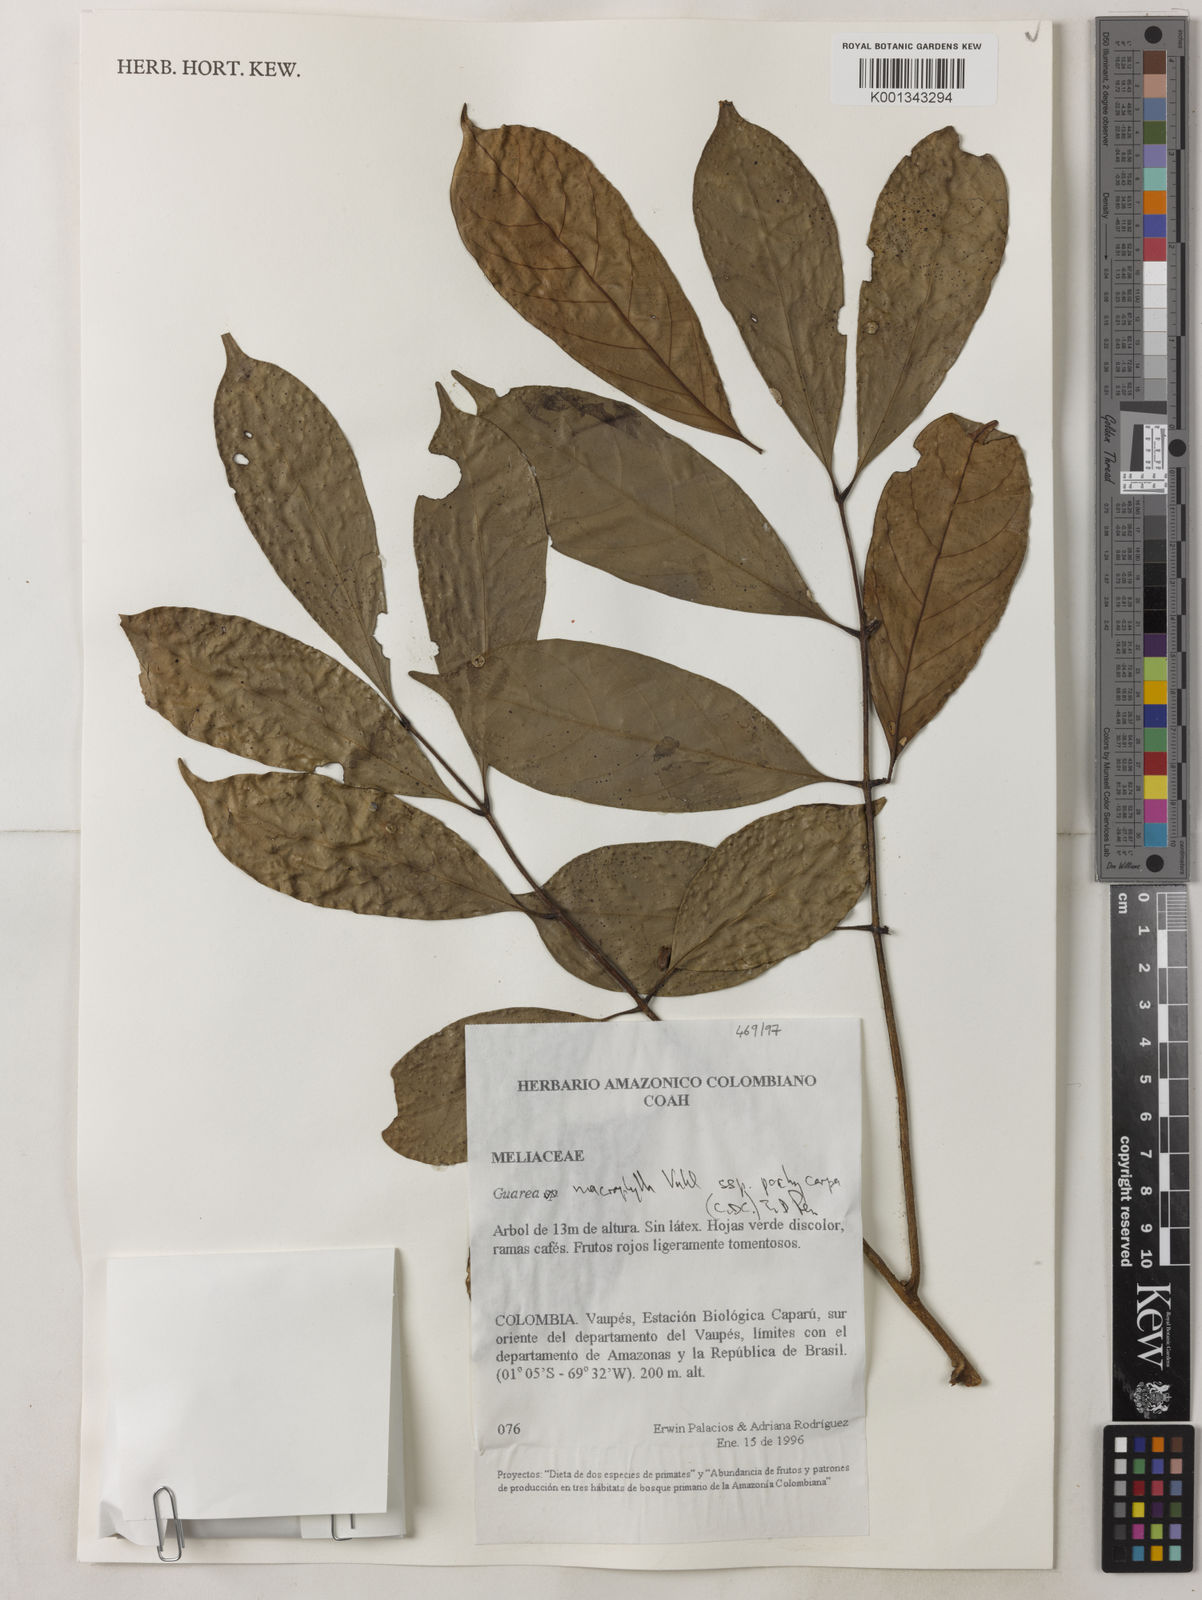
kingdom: Plantae
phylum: Tracheophyta
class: Magnoliopsida
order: Sapindales
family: Meliaceae
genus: Guarea
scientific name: Guarea macrophylla
